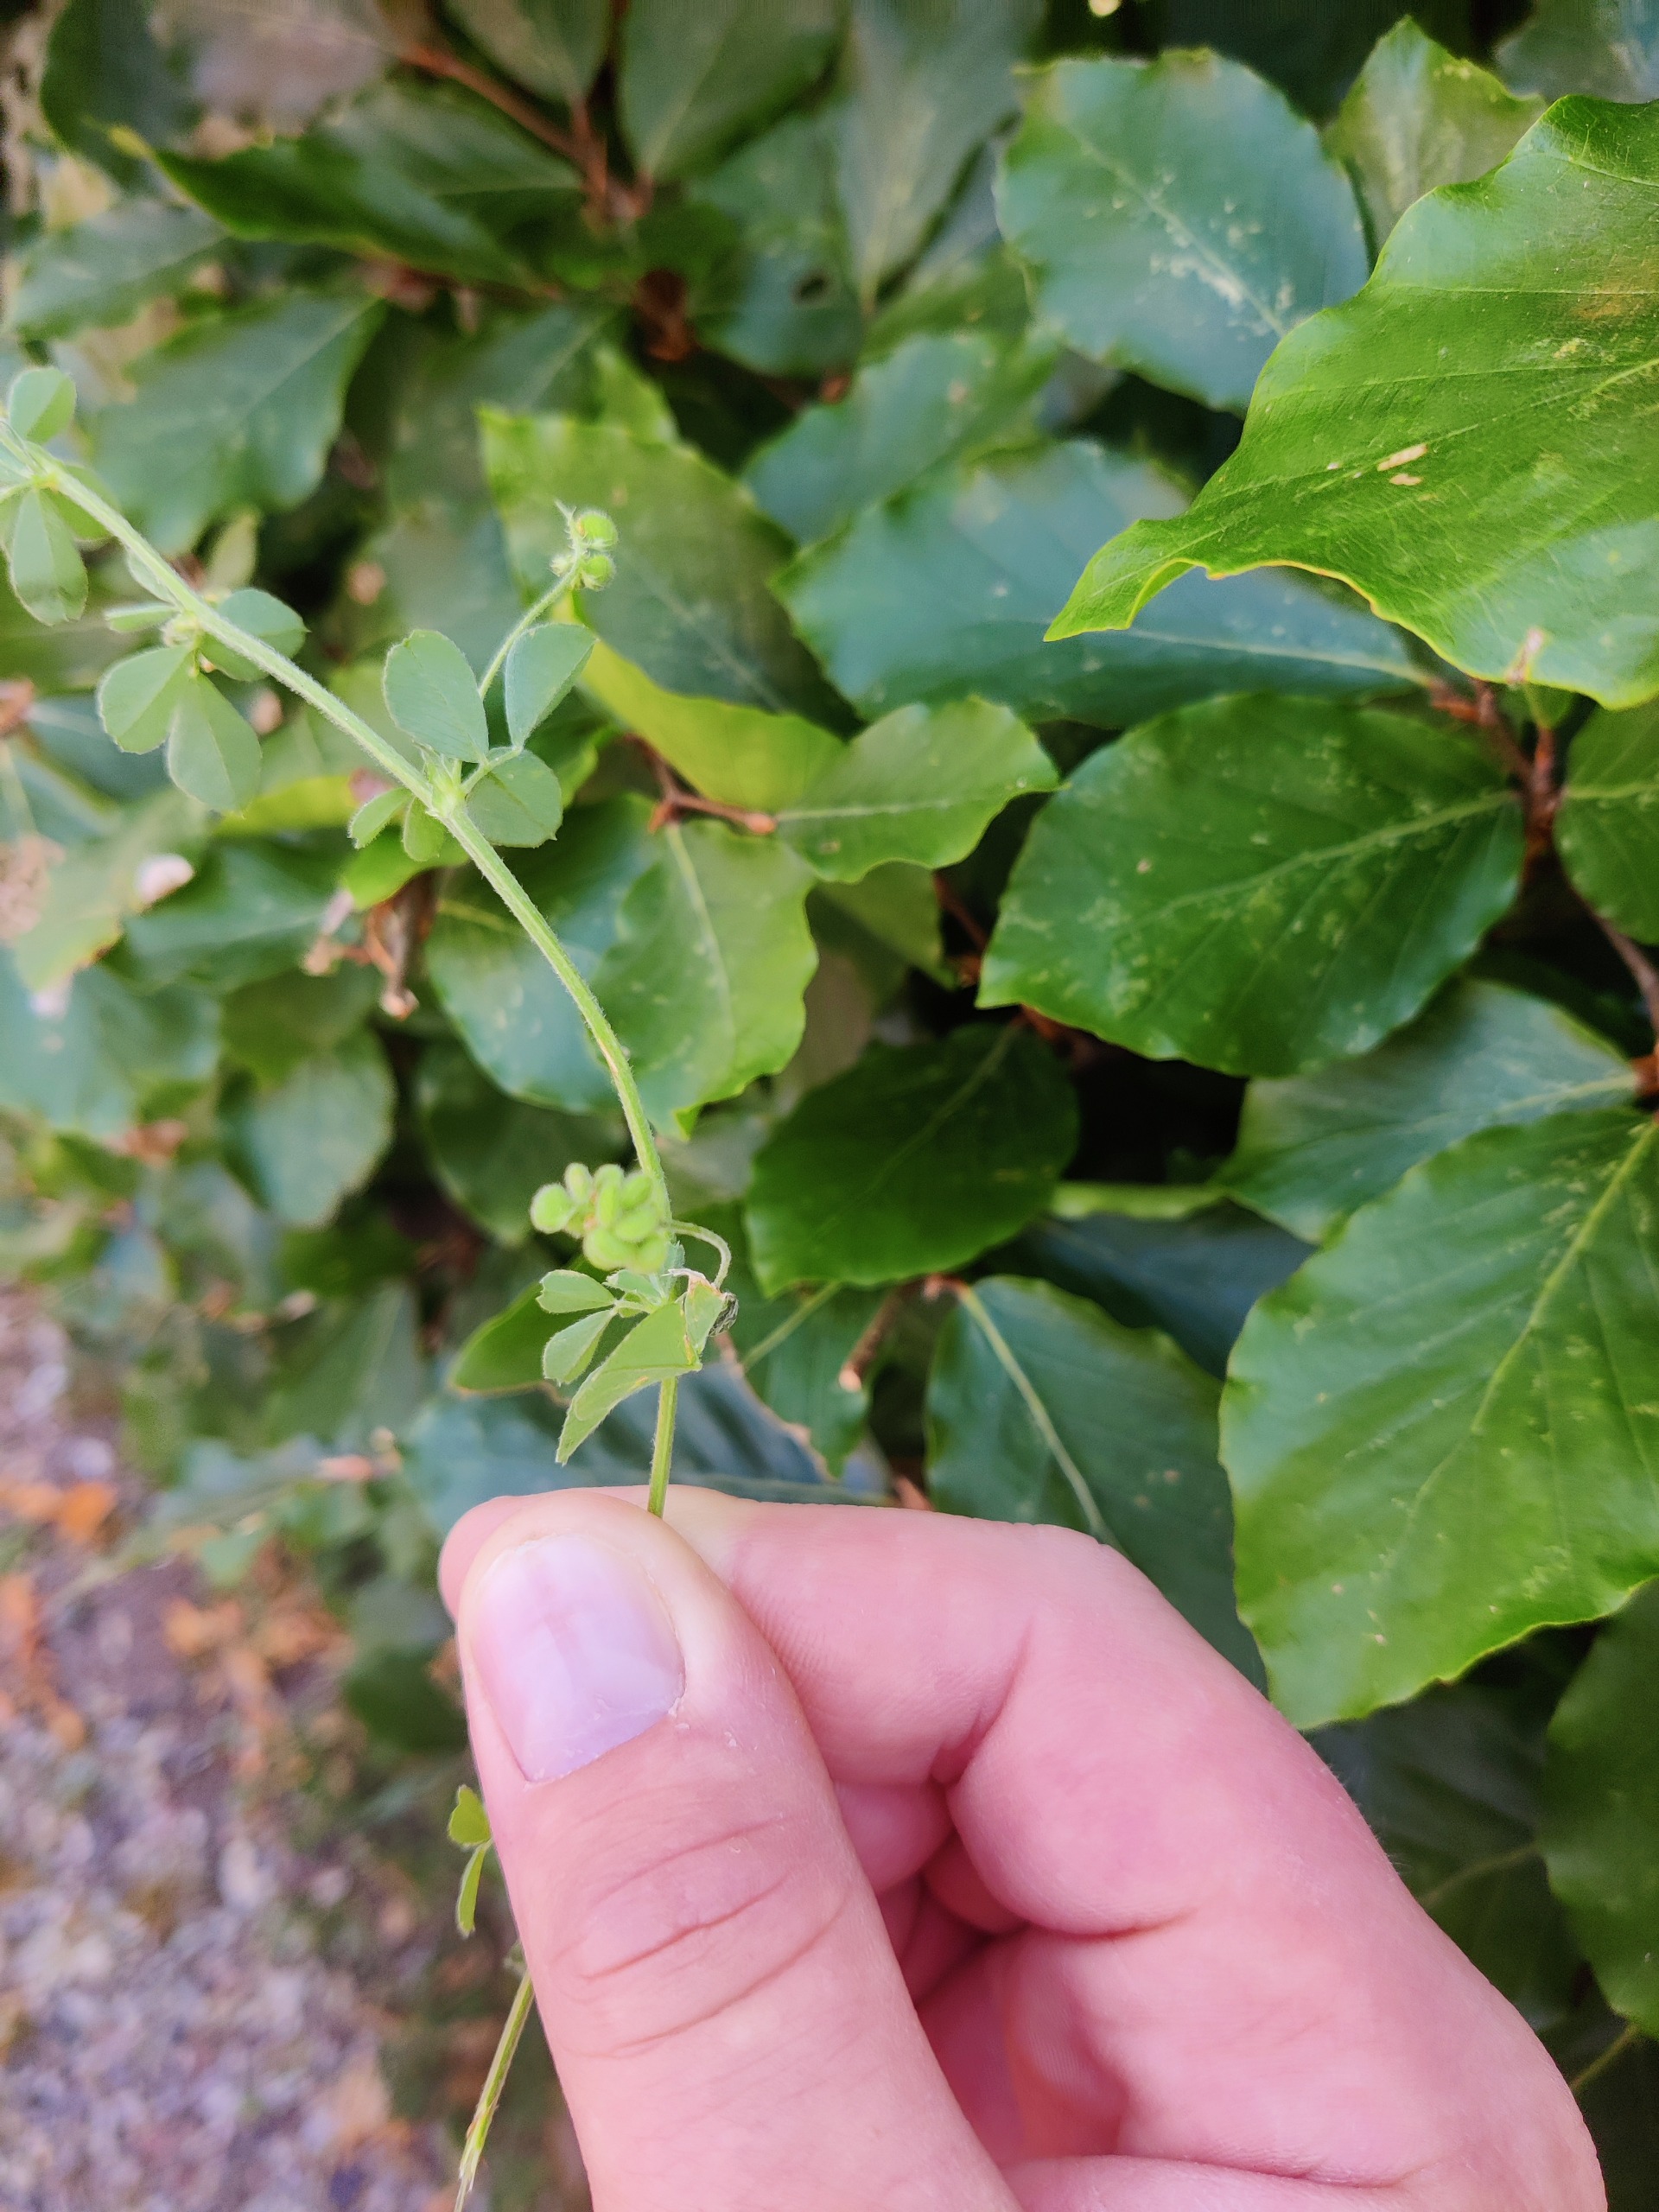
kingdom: Plantae
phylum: Tracheophyta
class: Magnoliopsida
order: Fabales
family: Fabaceae
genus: Medicago
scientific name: Medicago lupulina
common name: Humle-sneglebælg
